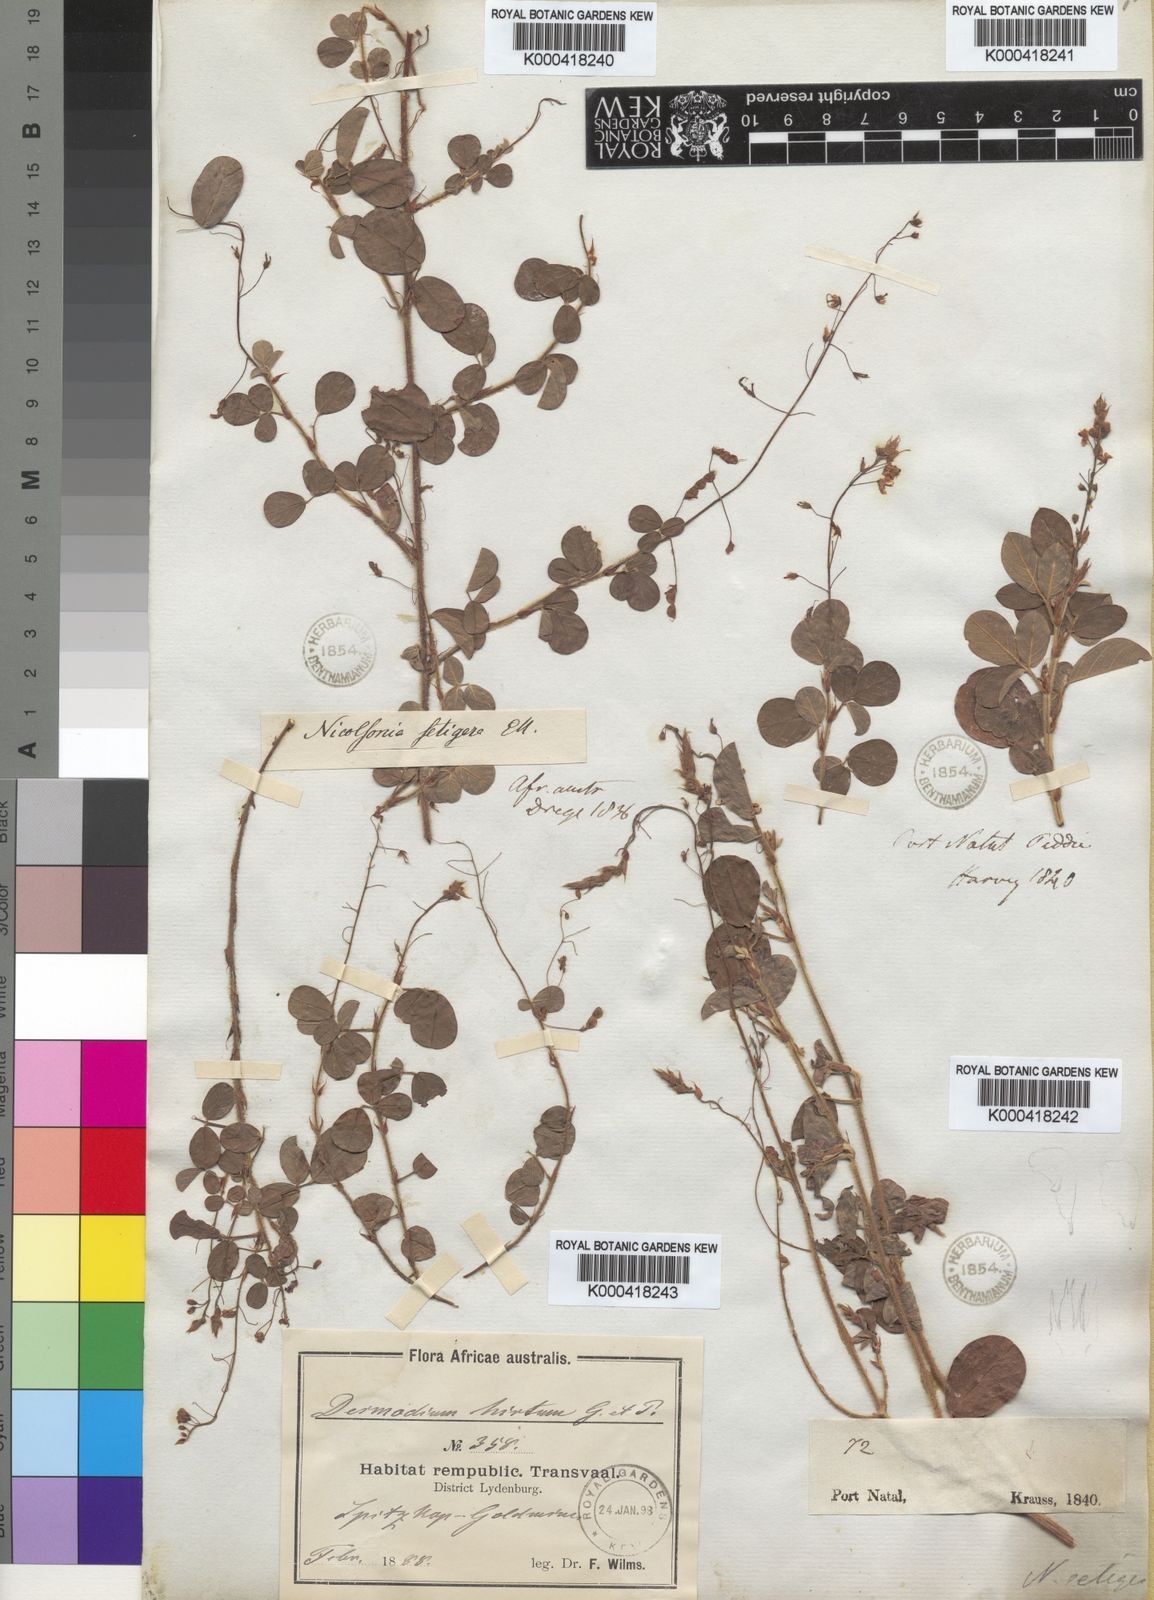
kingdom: Plantae
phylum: Tracheophyta
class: Magnoliopsida
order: Fabales
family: Fabaceae
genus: Grona
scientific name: Grona setigera
